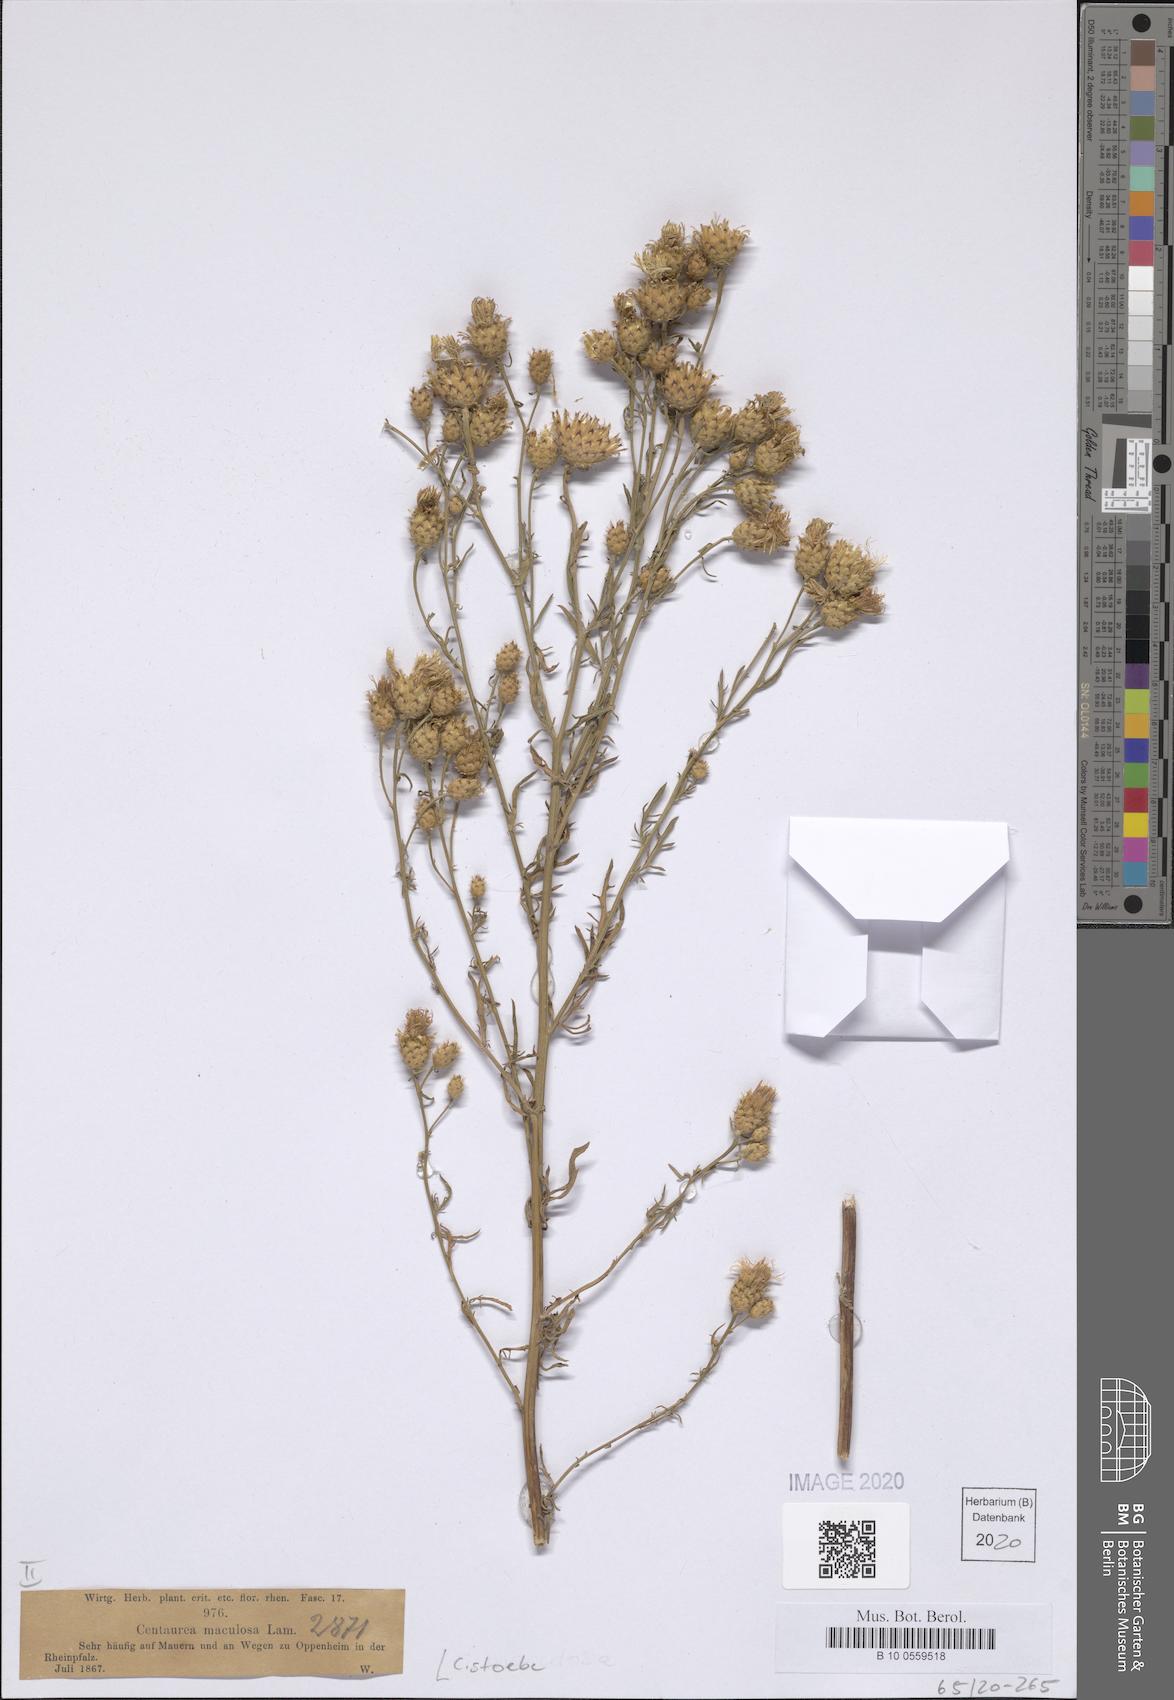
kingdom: Plantae
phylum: Tracheophyta
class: Magnoliopsida
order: Asterales
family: Asteraceae
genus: Centaurea
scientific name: Centaurea stoebe
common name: Spotted knapweed
